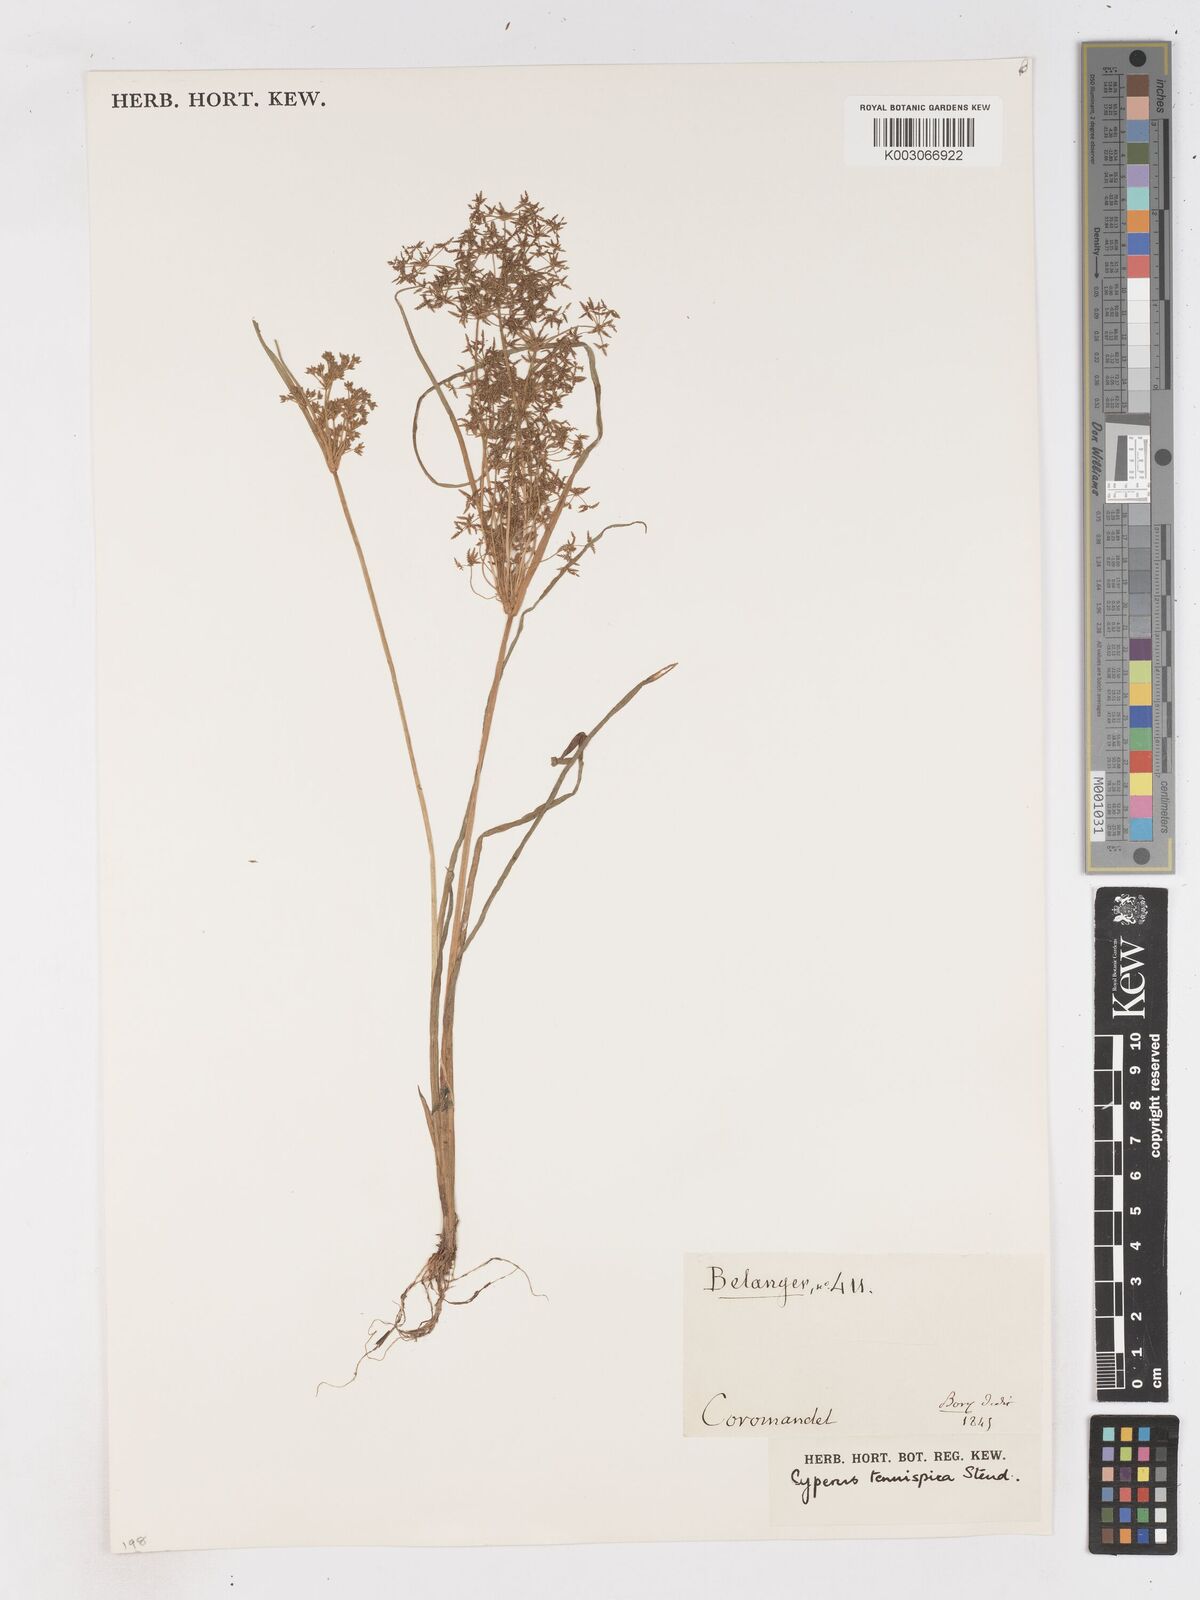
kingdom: Plantae
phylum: Tracheophyta
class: Liliopsida
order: Poales
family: Cyperaceae
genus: Cyperus
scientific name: Cyperus tenuispica
